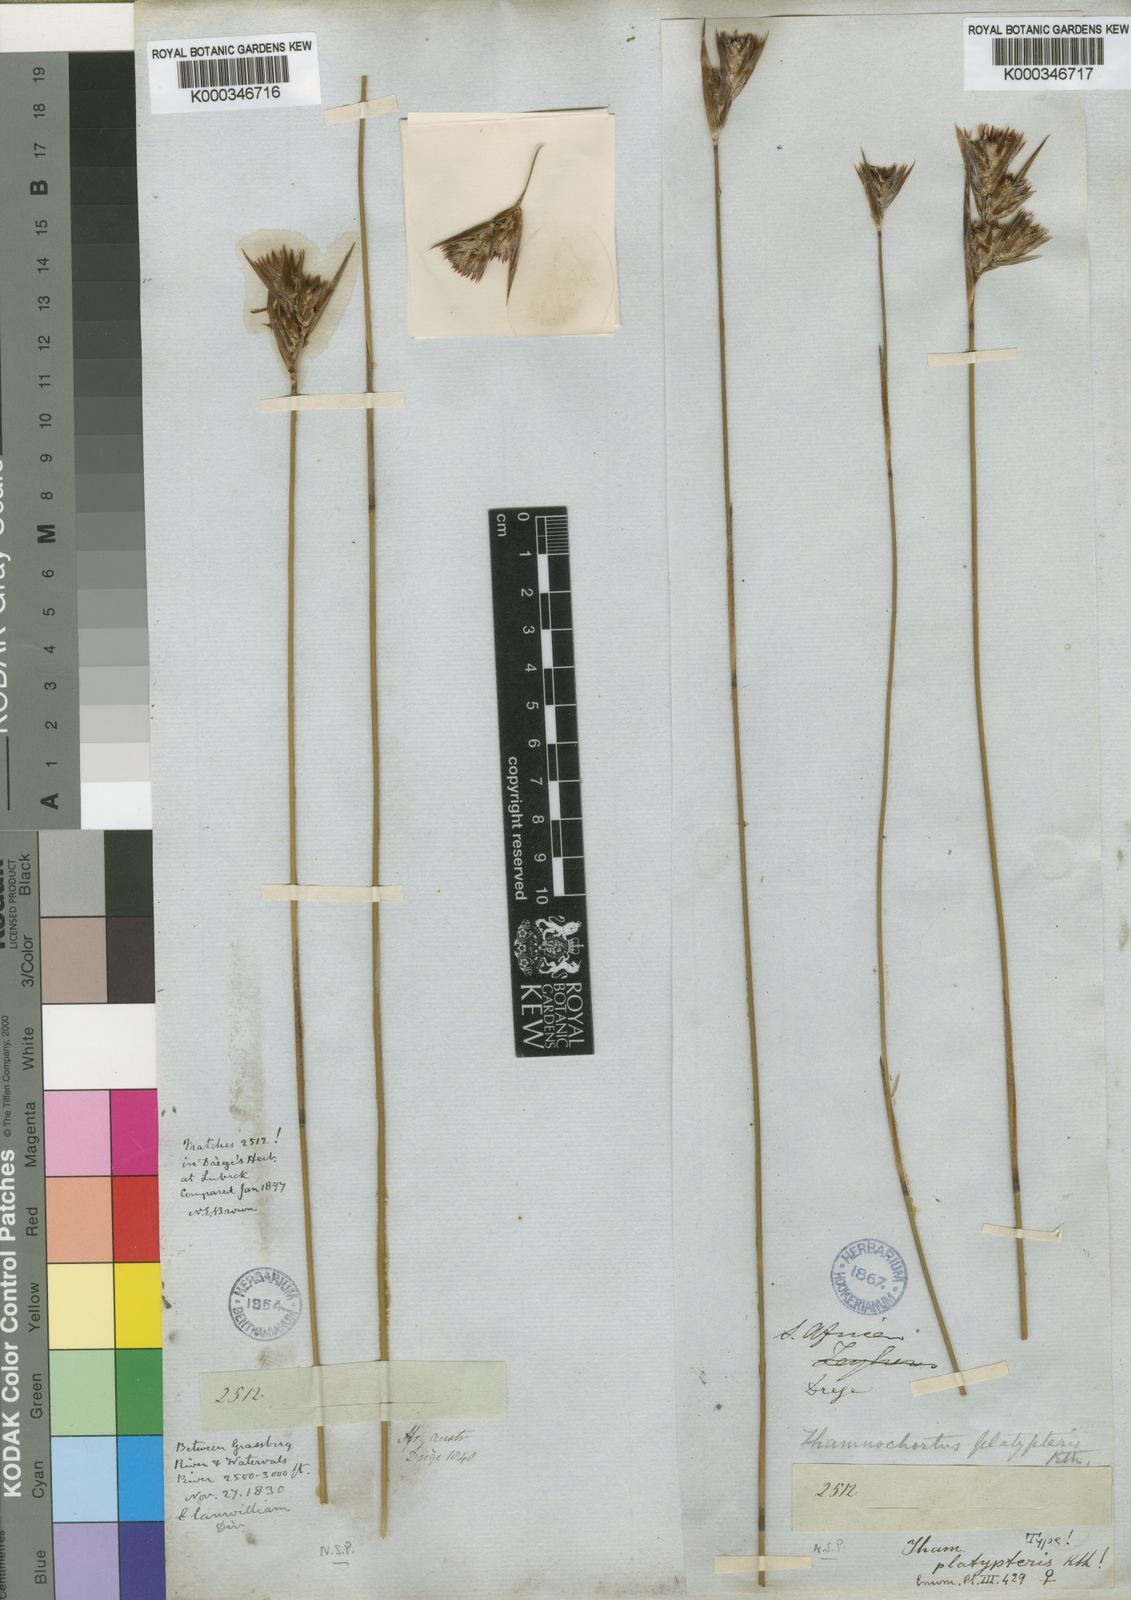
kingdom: Plantae
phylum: Tracheophyta
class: Liliopsida
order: Poales
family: Restionaceae
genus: Thamnochortus
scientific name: Thamnochortus platypteris
